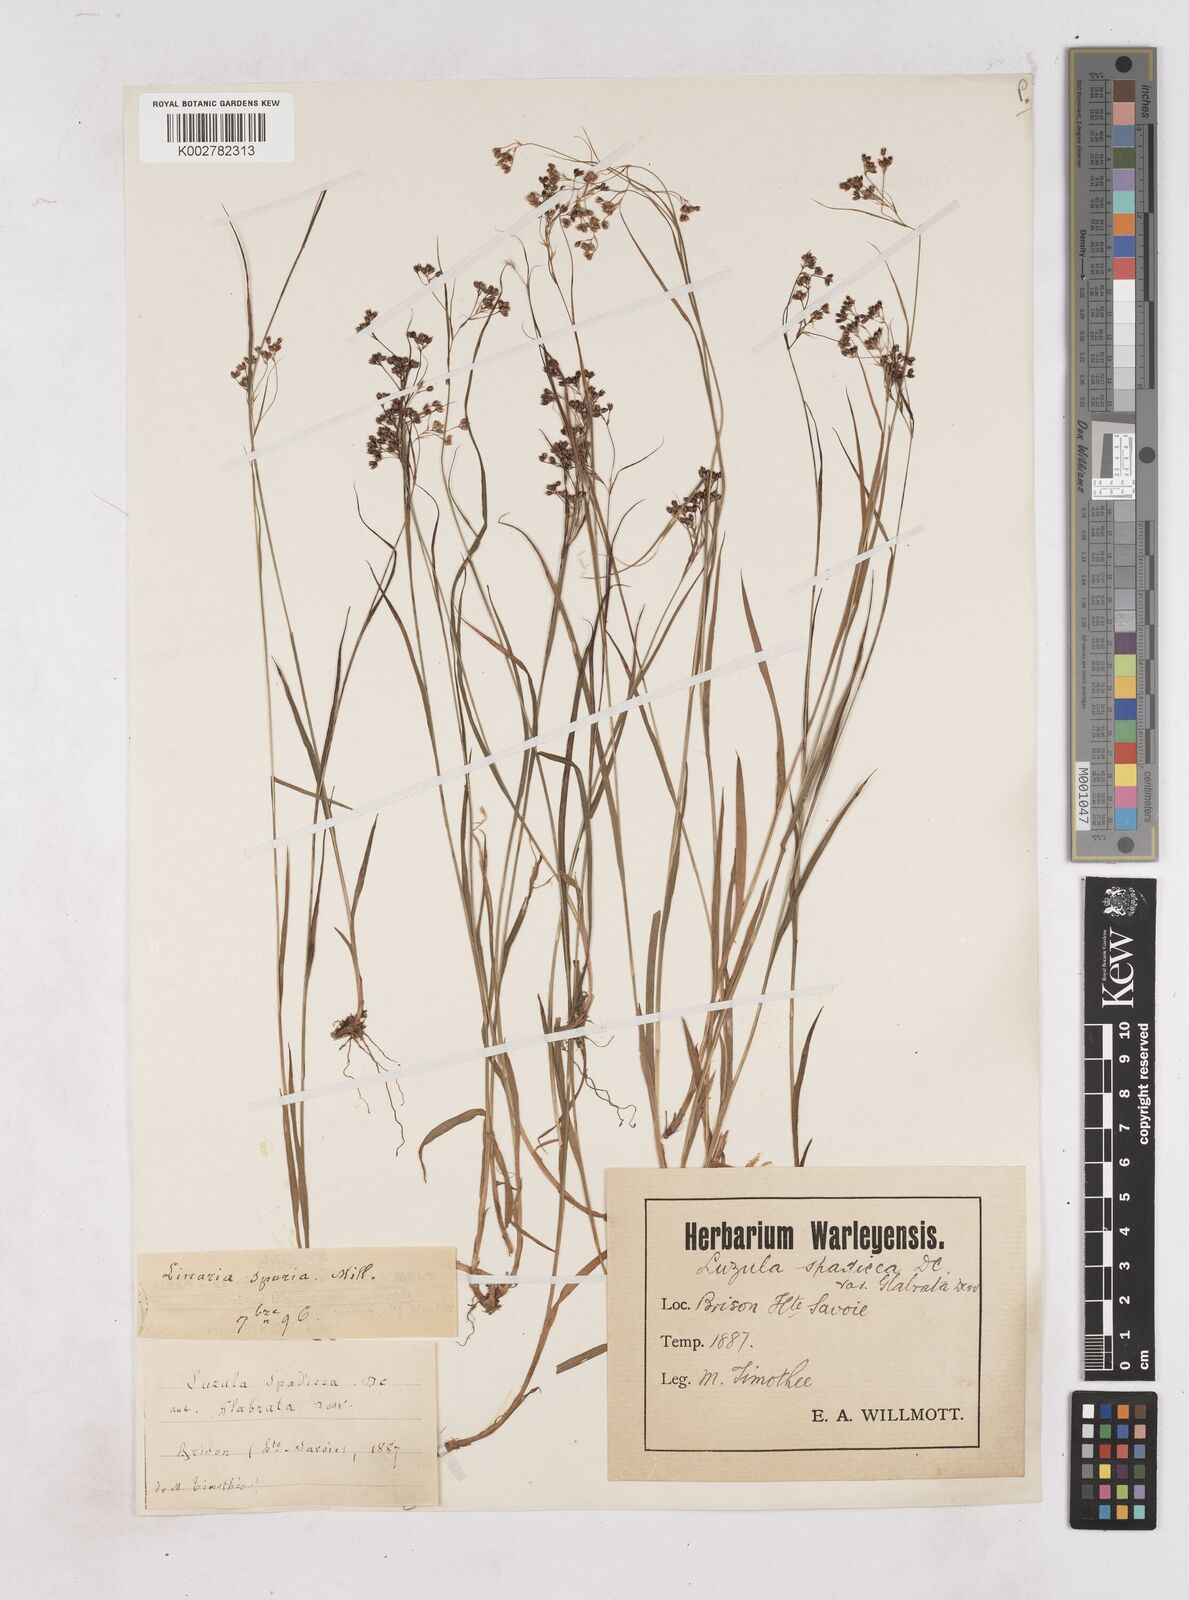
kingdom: Plantae
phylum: Tracheophyta
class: Liliopsida
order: Poales
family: Juncaceae
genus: Luzula
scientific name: Luzula alpinopilosa
